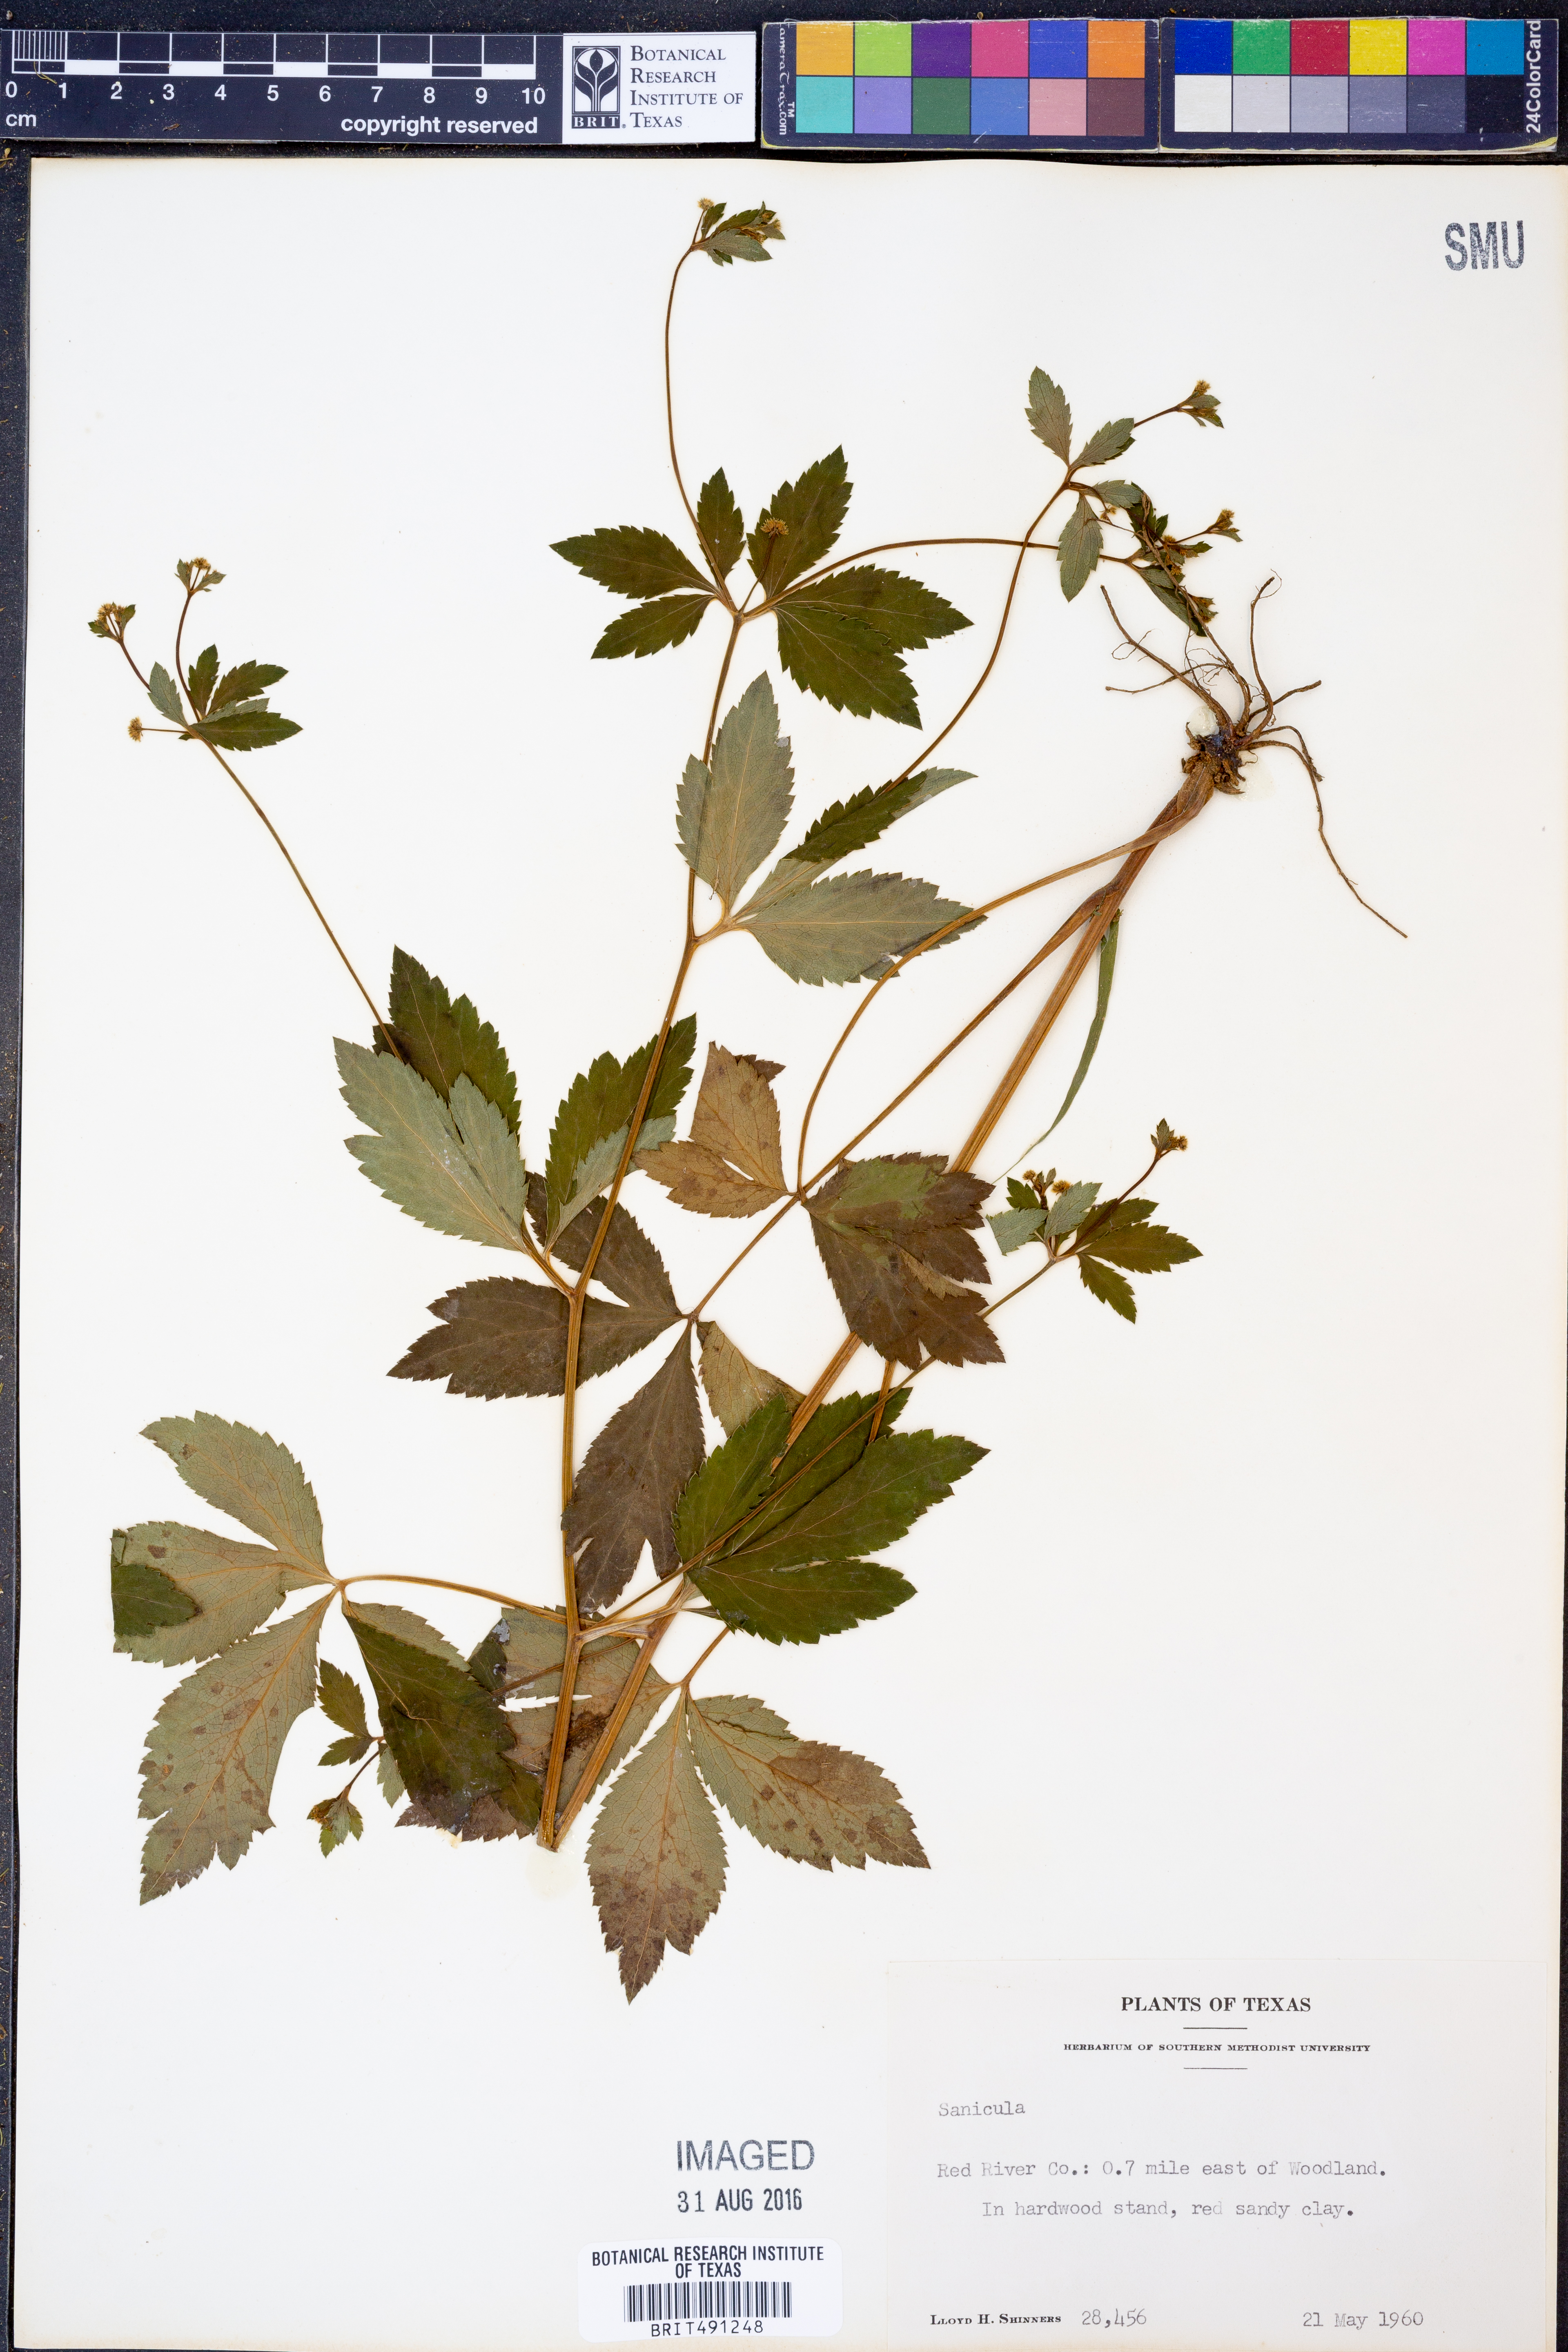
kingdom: Plantae
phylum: Tracheophyta
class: Magnoliopsida
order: Apiales
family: Apiaceae
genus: Sanicula
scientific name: Sanicula
